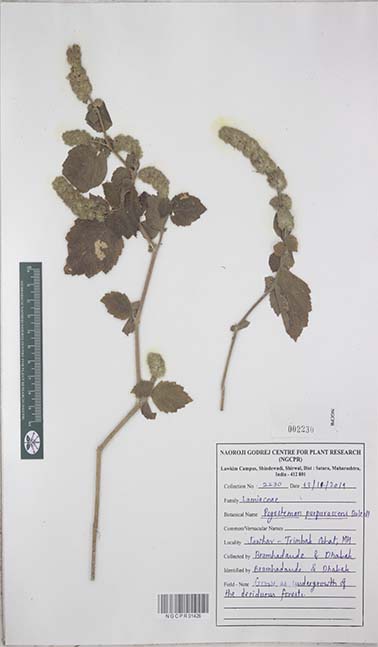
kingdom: Plantae
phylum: Tracheophyta
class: Magnoliopsida
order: Lamiales
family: Lamiaceae
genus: Pogostemon
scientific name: Pogostemon purpurascens
